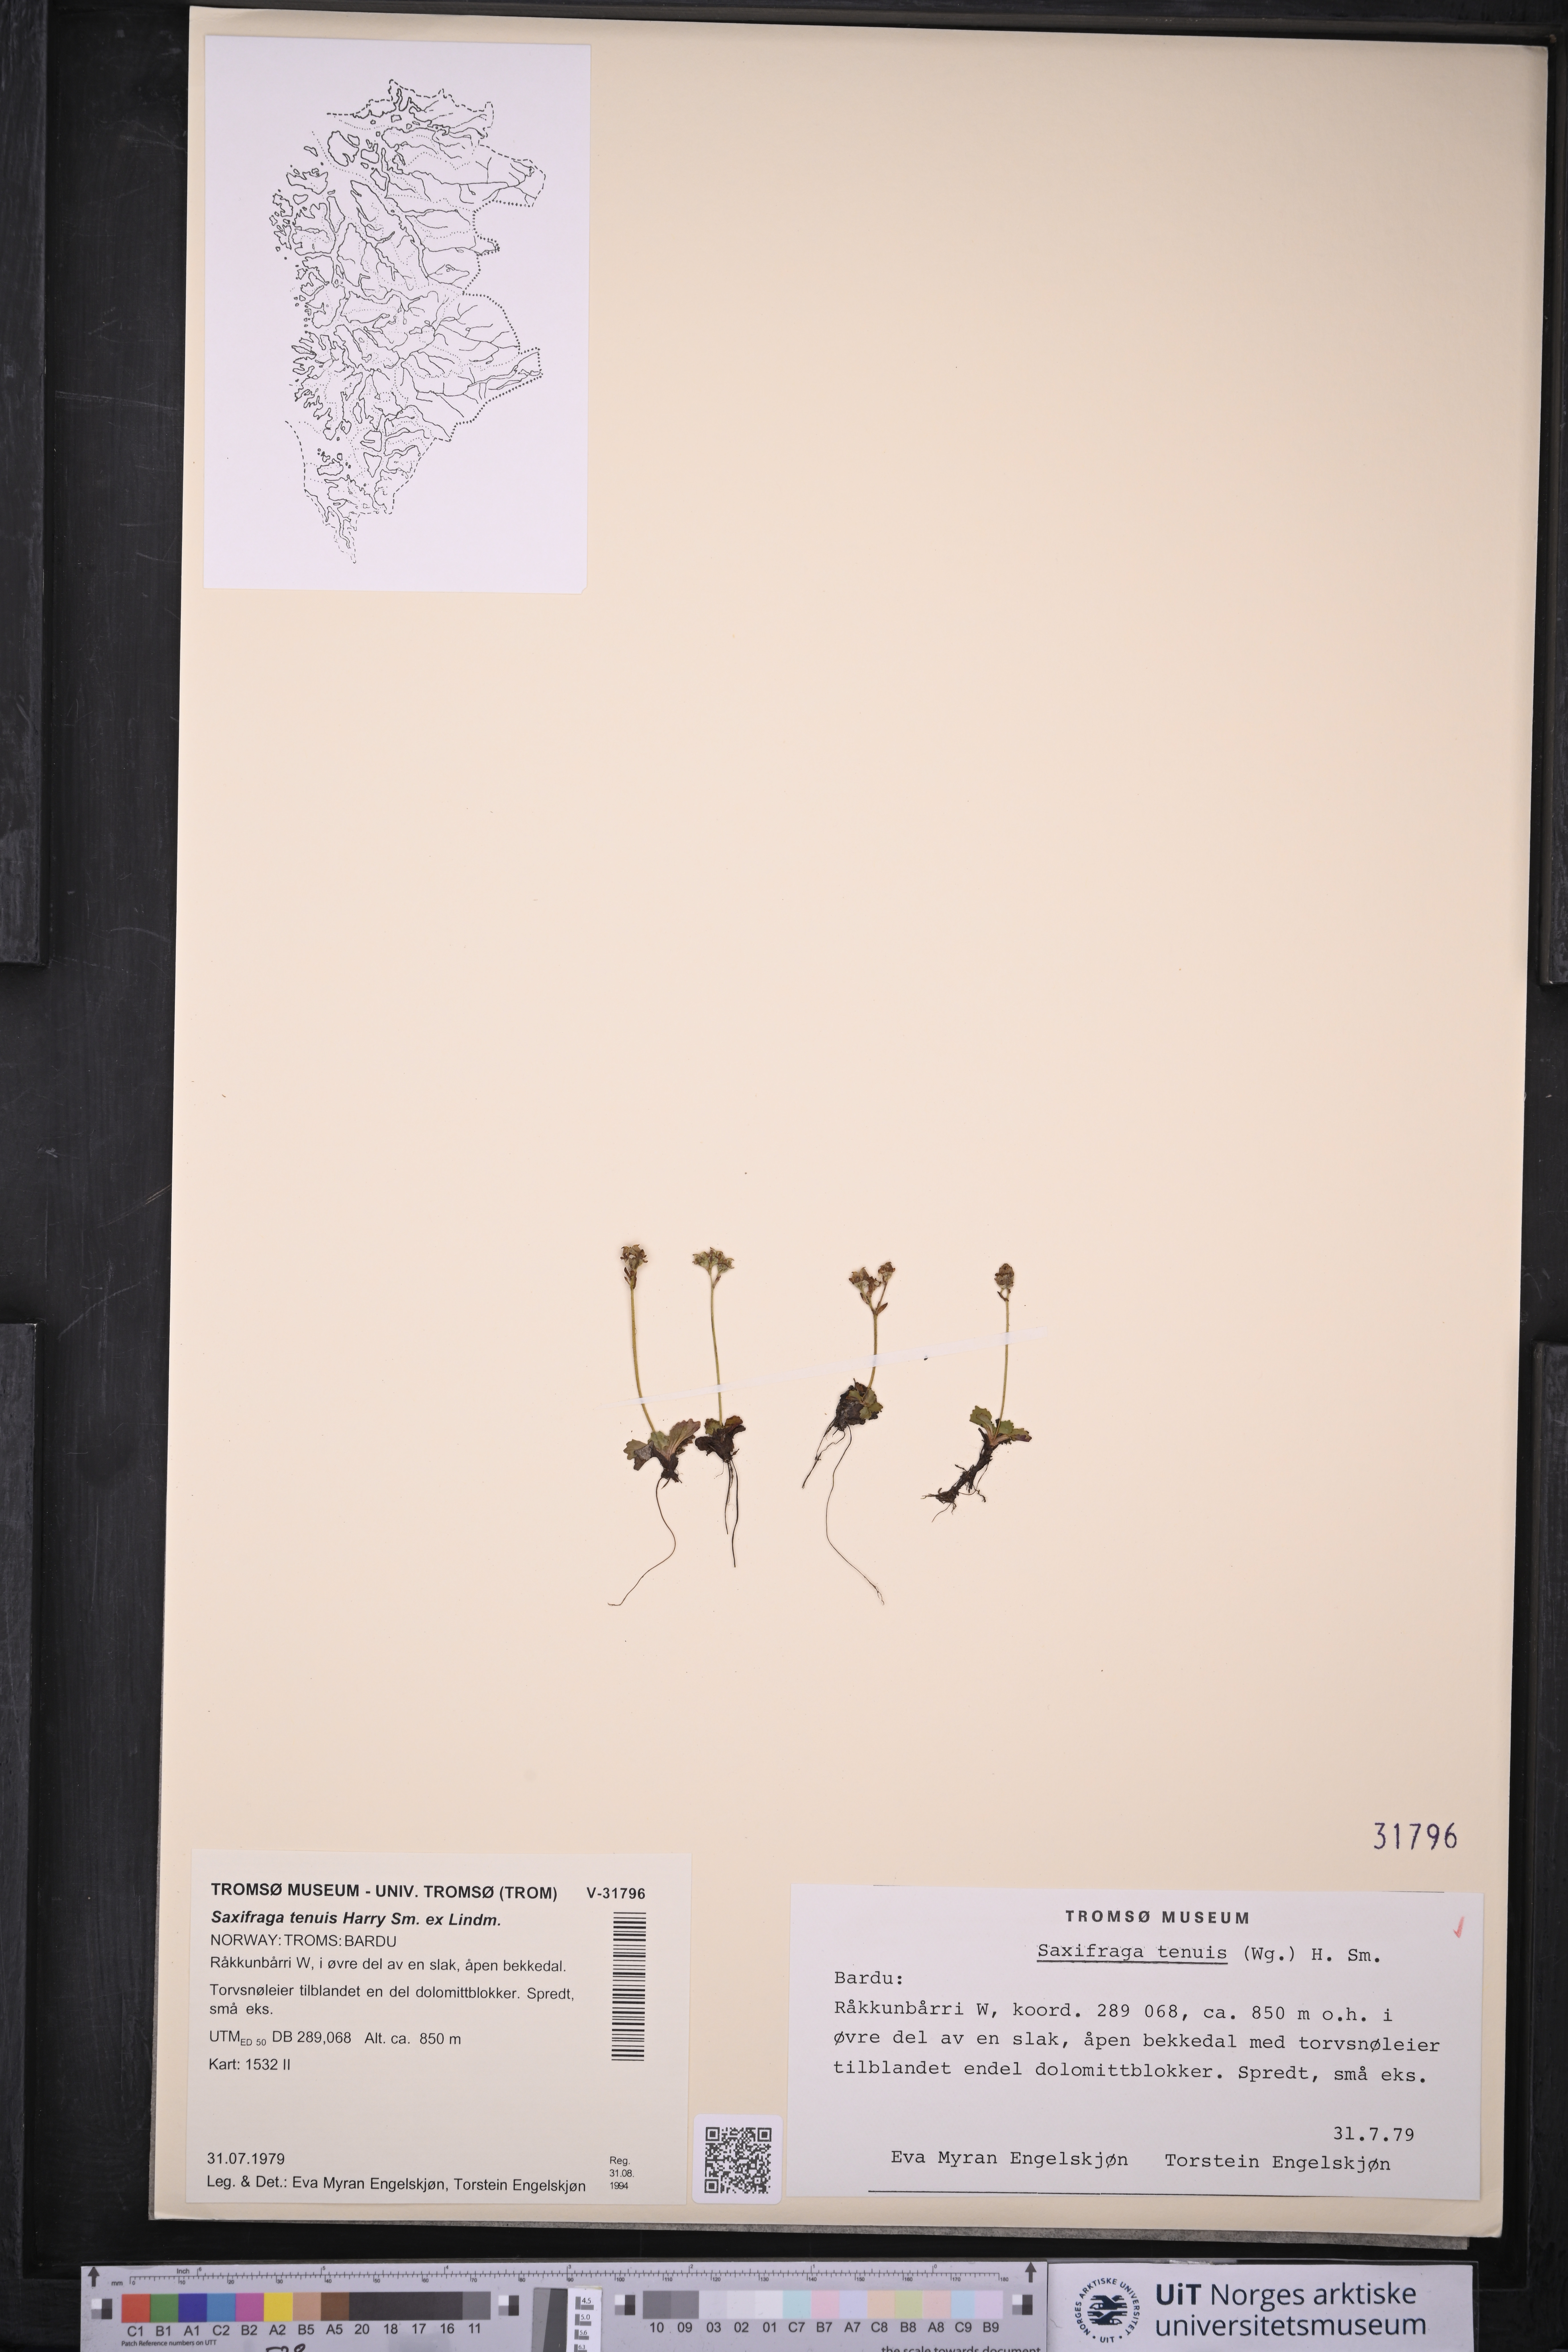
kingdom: Plantae
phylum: Tracheophyta
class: Magnoliopsida
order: Saxifragales
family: Saxifragaceae
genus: Micranthes
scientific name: Micranthes tenuis
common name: Ottertail pass saxifrage
